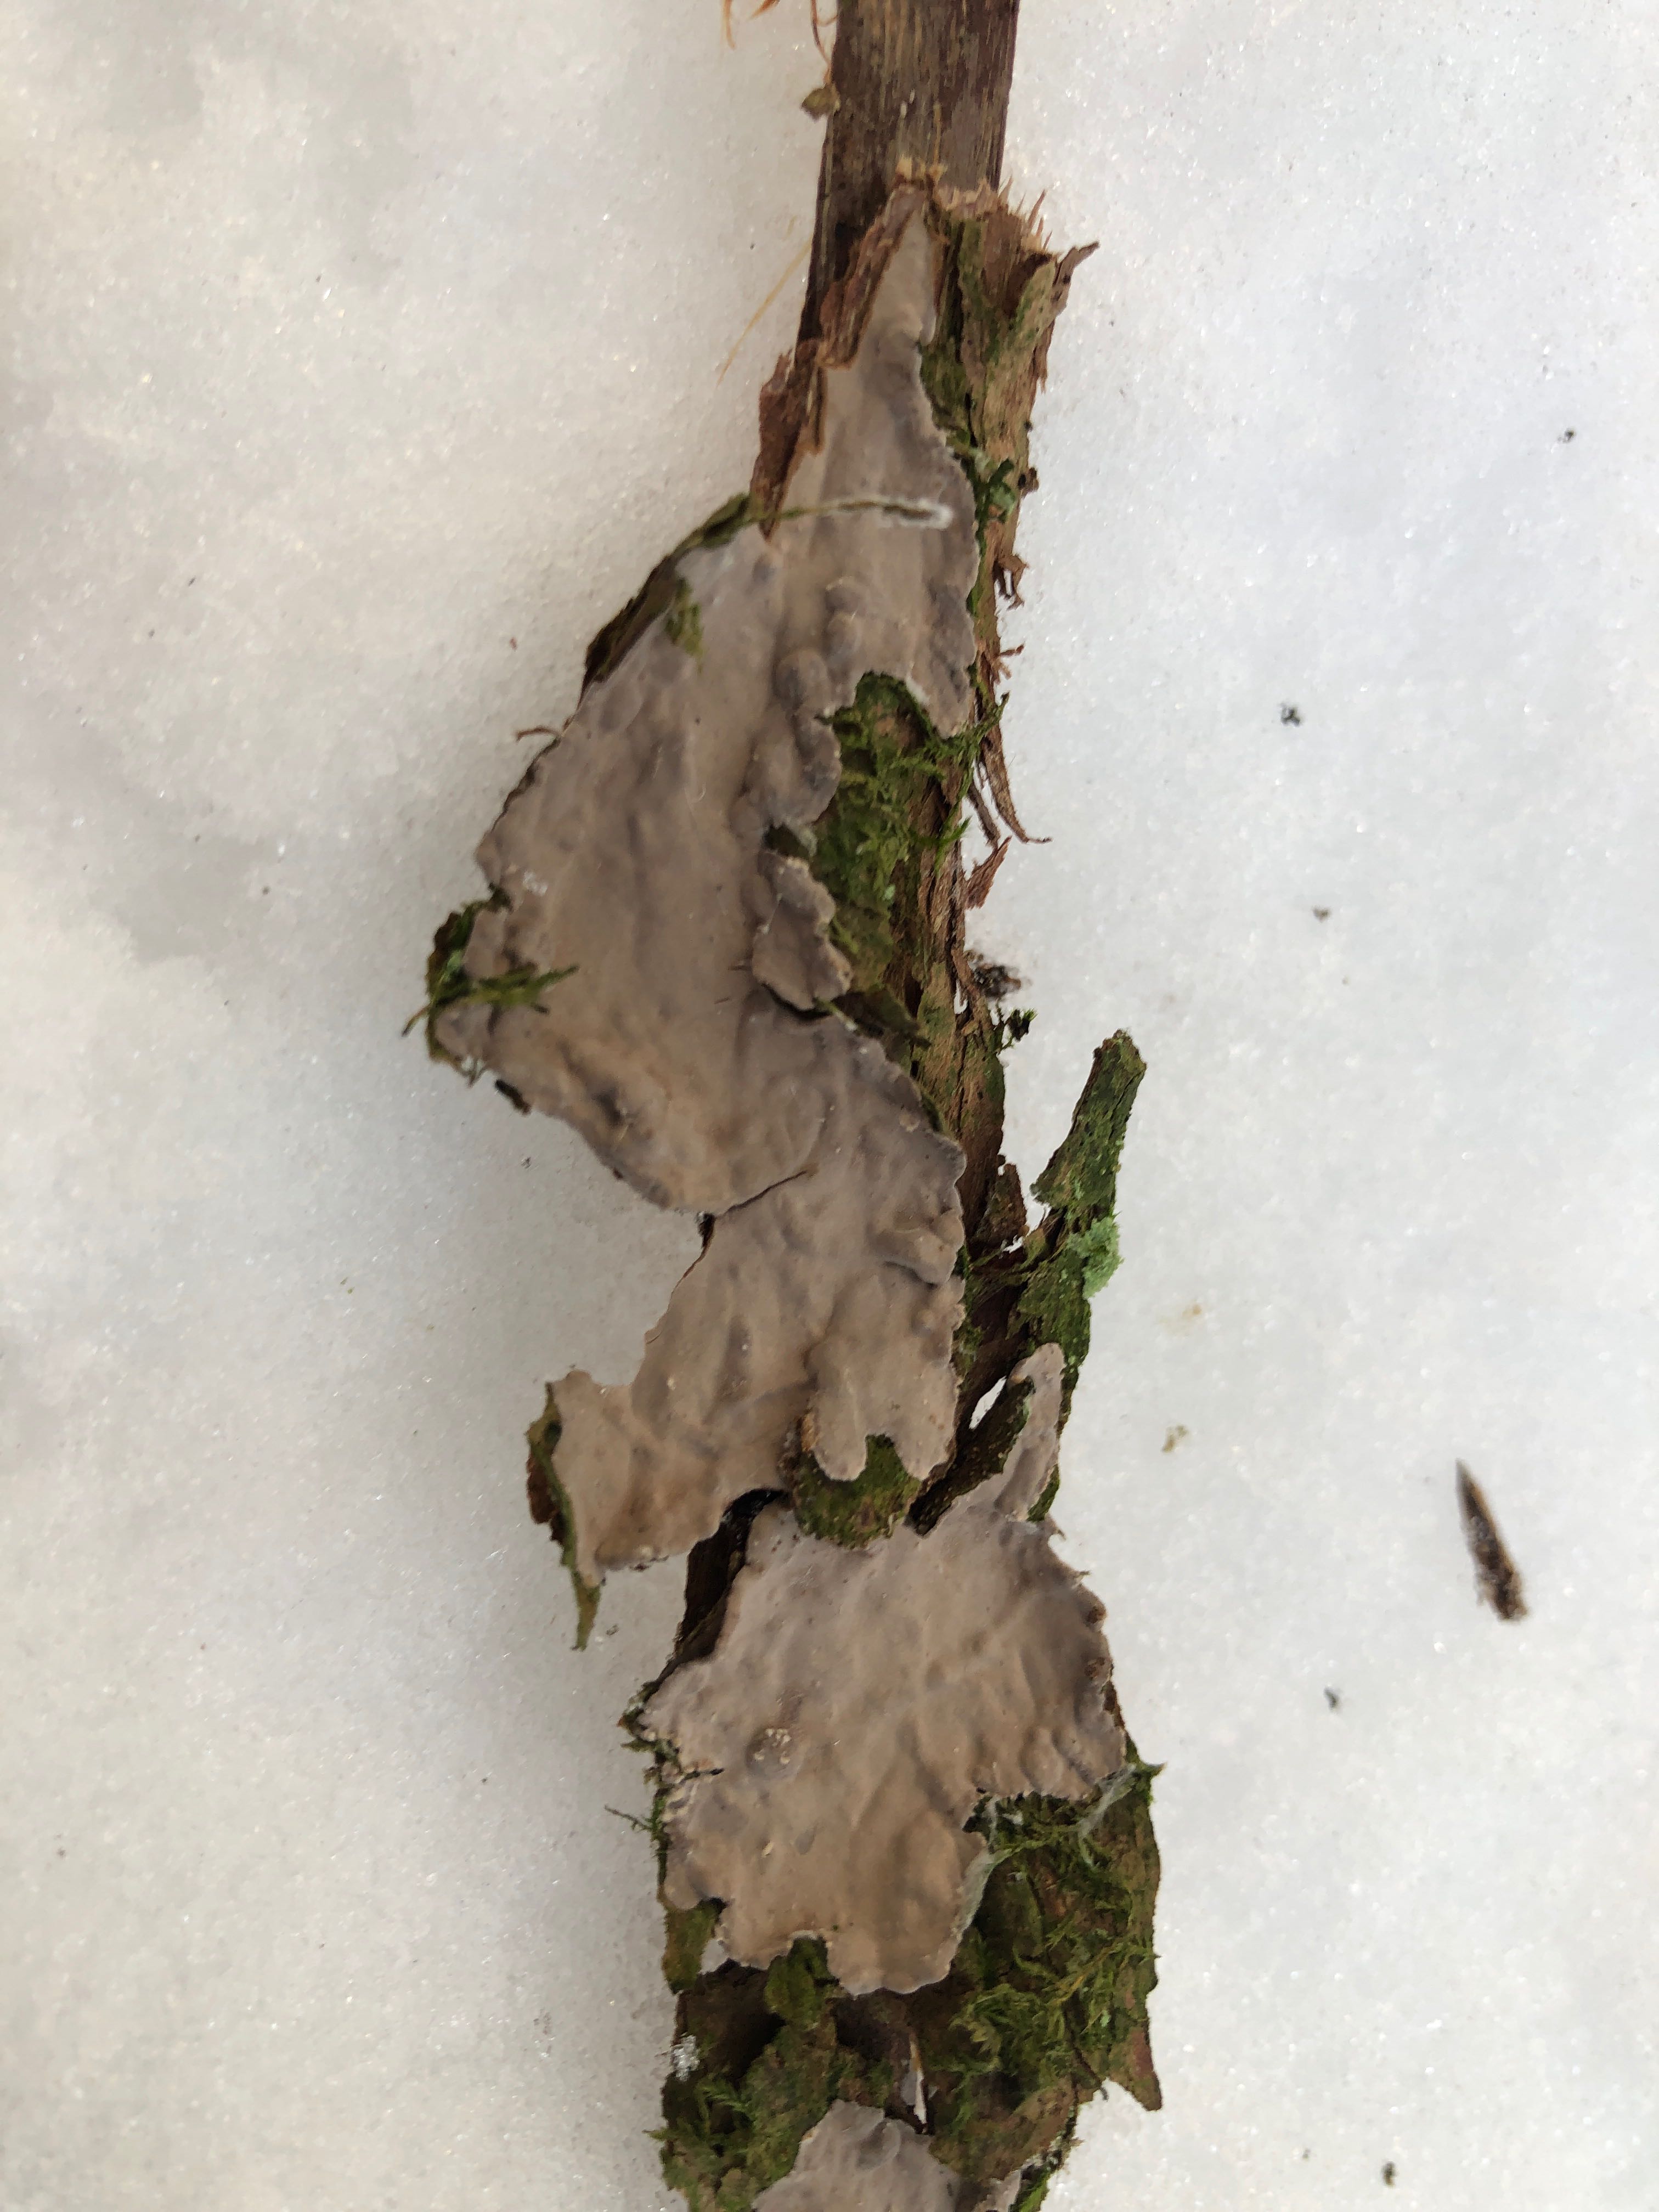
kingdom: Fungi
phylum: Basidiomycota
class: Agaricomycetes
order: Russulales
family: Echinodontiaceae
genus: Amylostereum
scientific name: Amylostereum laevigatum
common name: ene-lædersvamp
